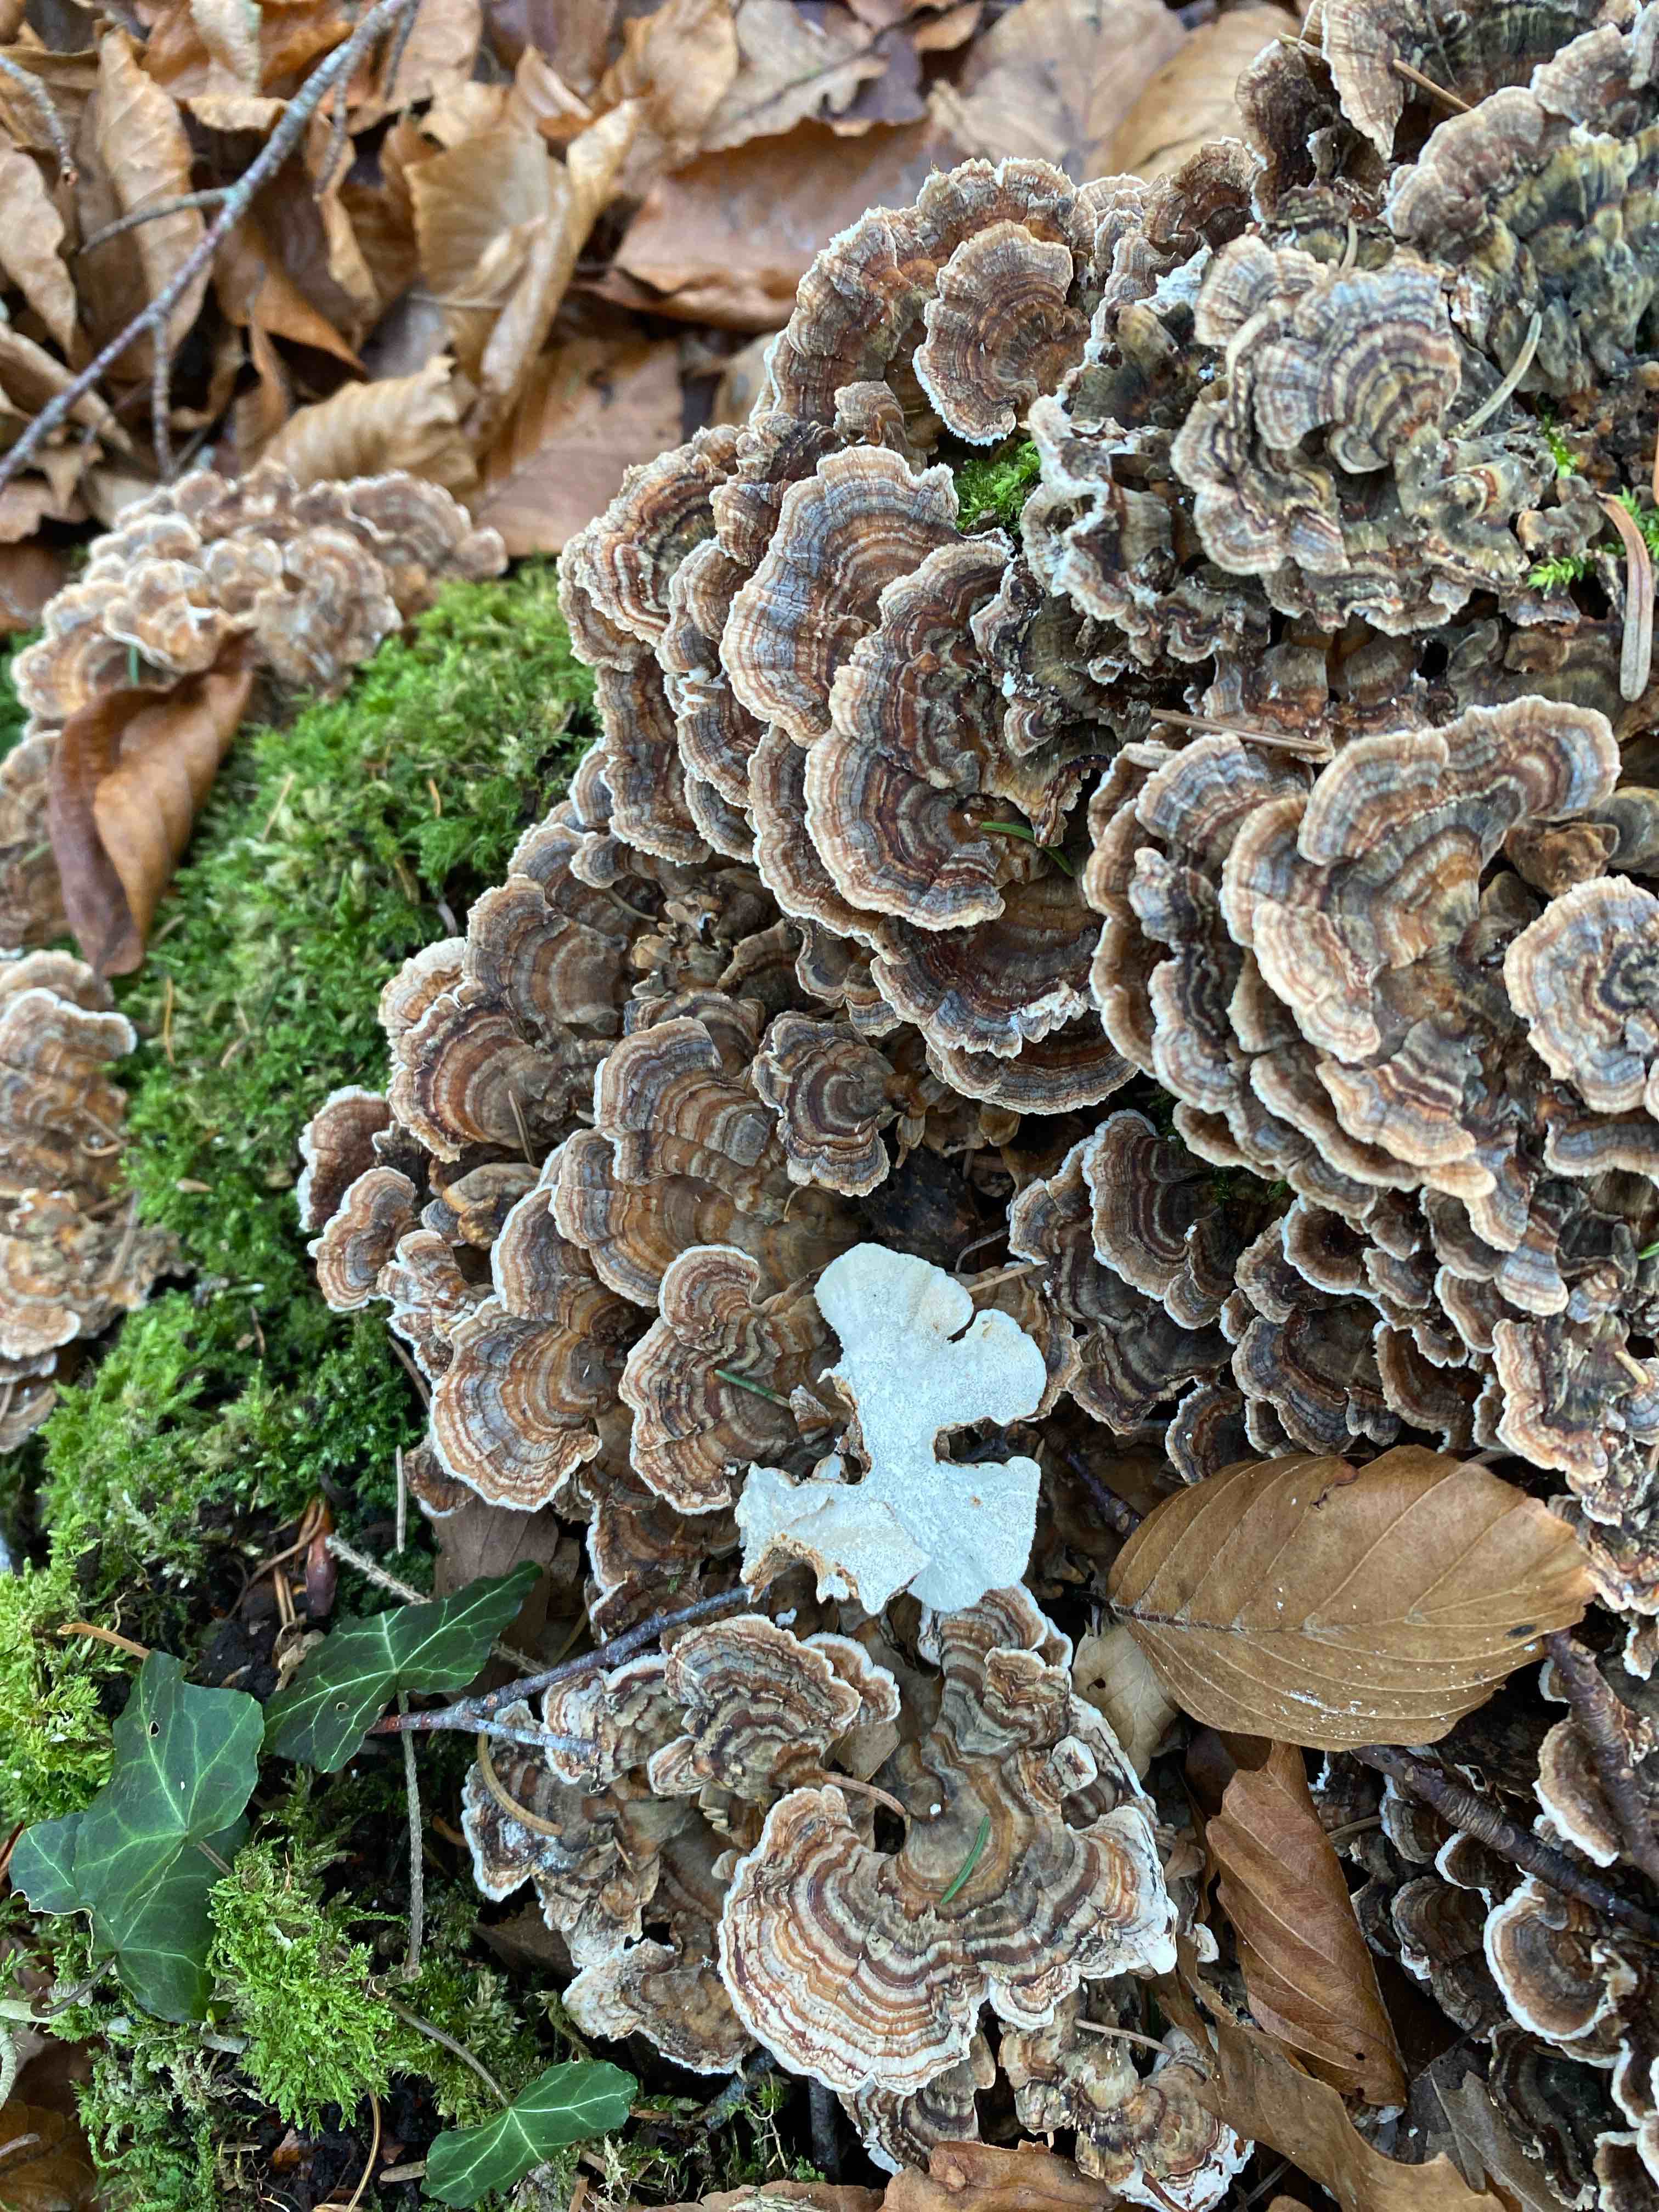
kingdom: Fungi
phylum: Basidiomycota
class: Agaricomycetes
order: Polyporales
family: Polyporaceae
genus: Trametes
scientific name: Trametes versicolor
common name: broget læderporesvamp
